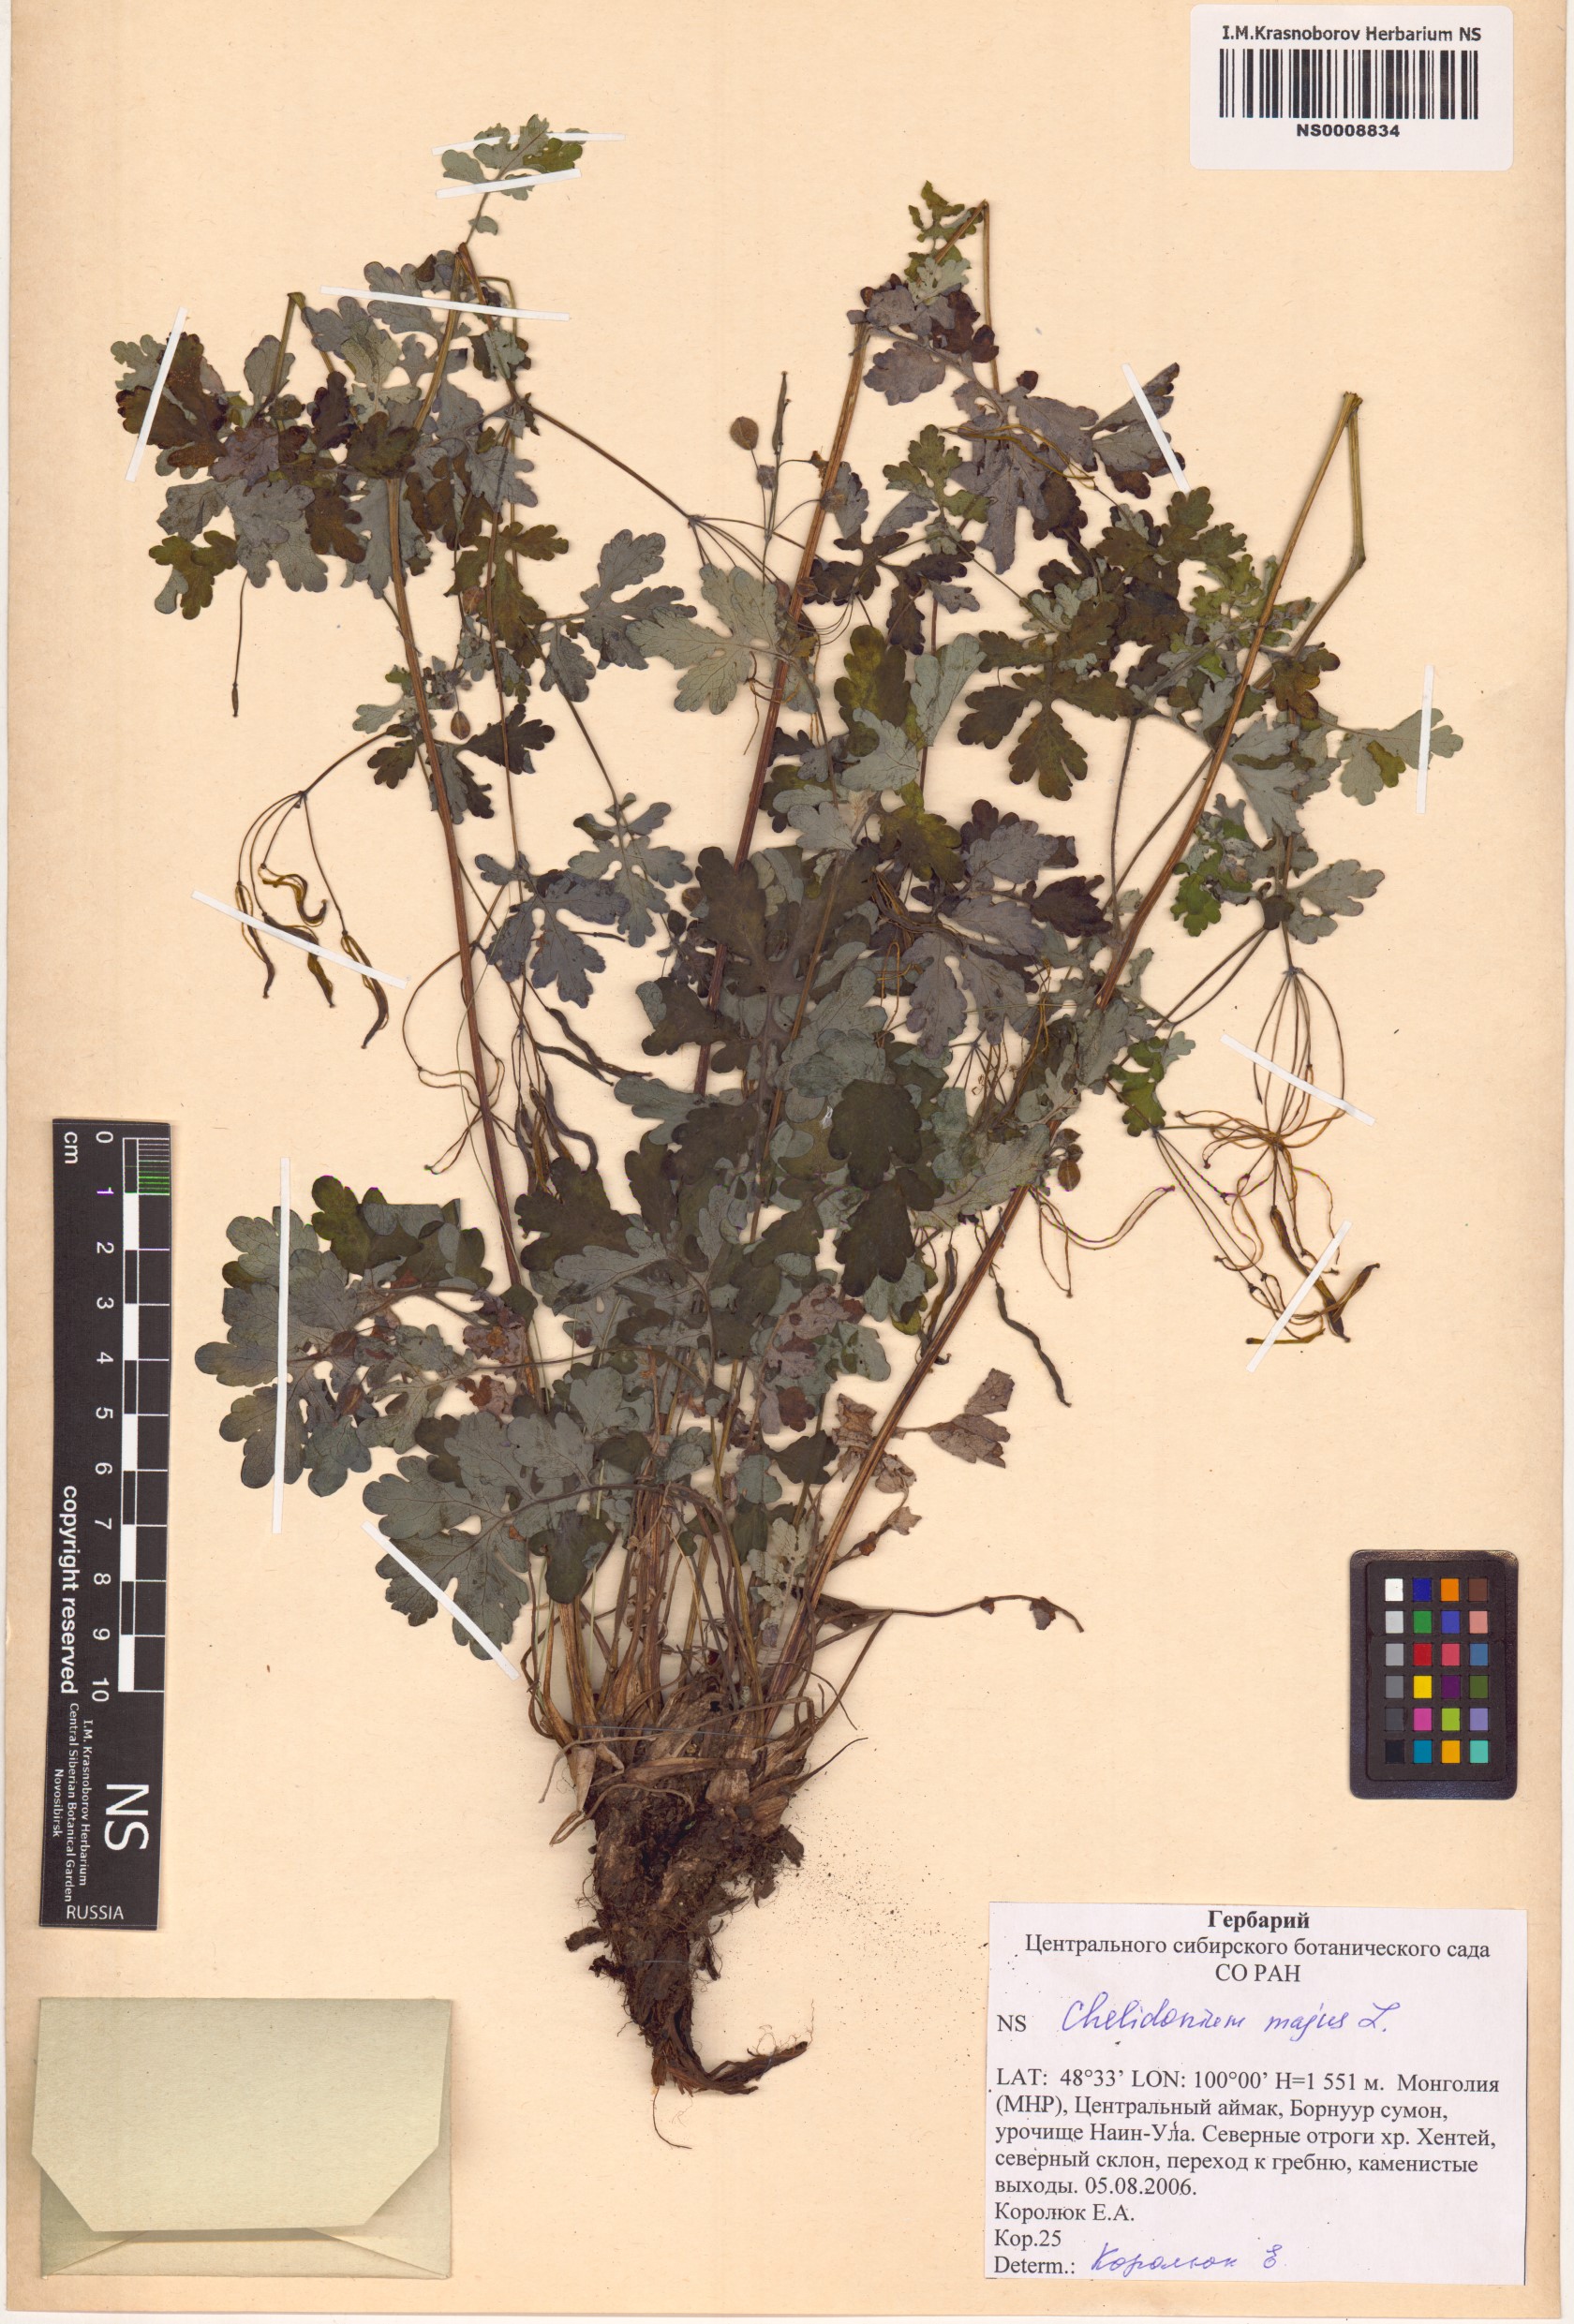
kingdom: Plantae
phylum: Tracheophyta
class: Magnoliopsida
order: Ranunculales
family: Papaveraceae
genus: Chelidonium
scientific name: Chelidonium majus
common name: Greater celandine
